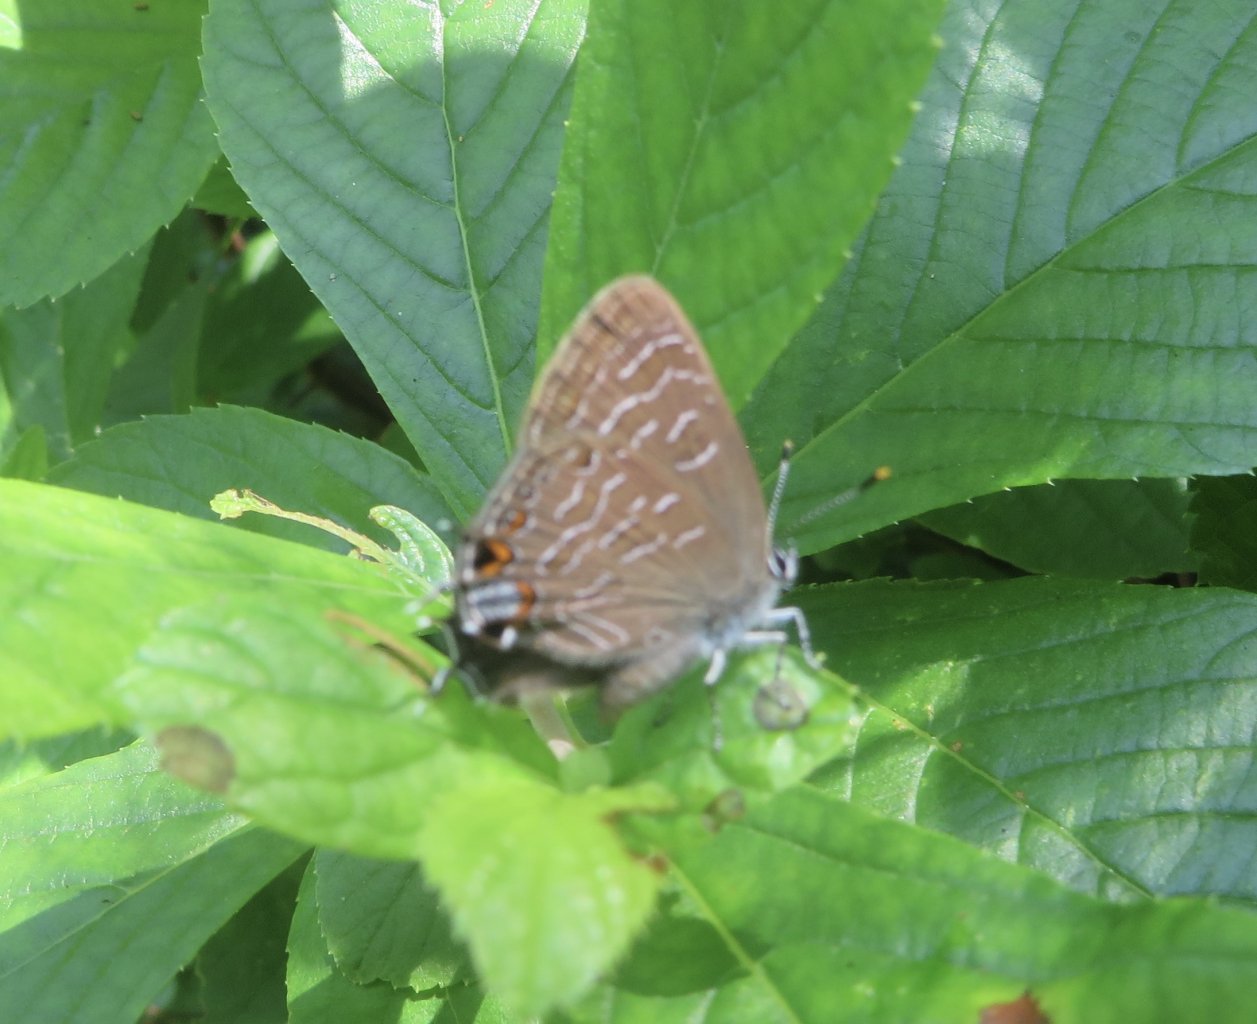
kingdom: Animalia
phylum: Arthropoda
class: Insecta
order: Lepidoptera
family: Lycaenidae
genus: Satyrium
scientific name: Satyrium liparops
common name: Striped Hairstreak
